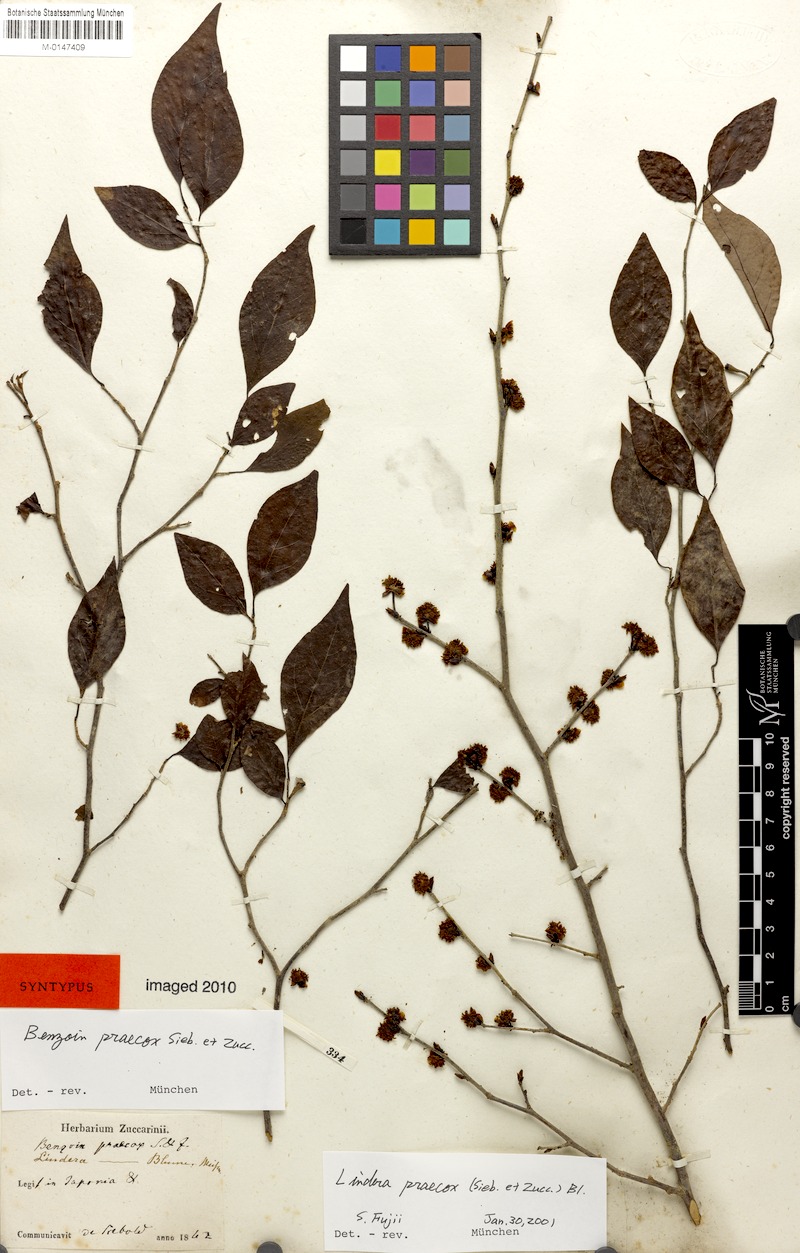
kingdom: Plantae
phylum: Tracheophyta
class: Magnoliopsida
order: Laurales
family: Lauraceae
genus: Lindera
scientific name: Lindera praecox
